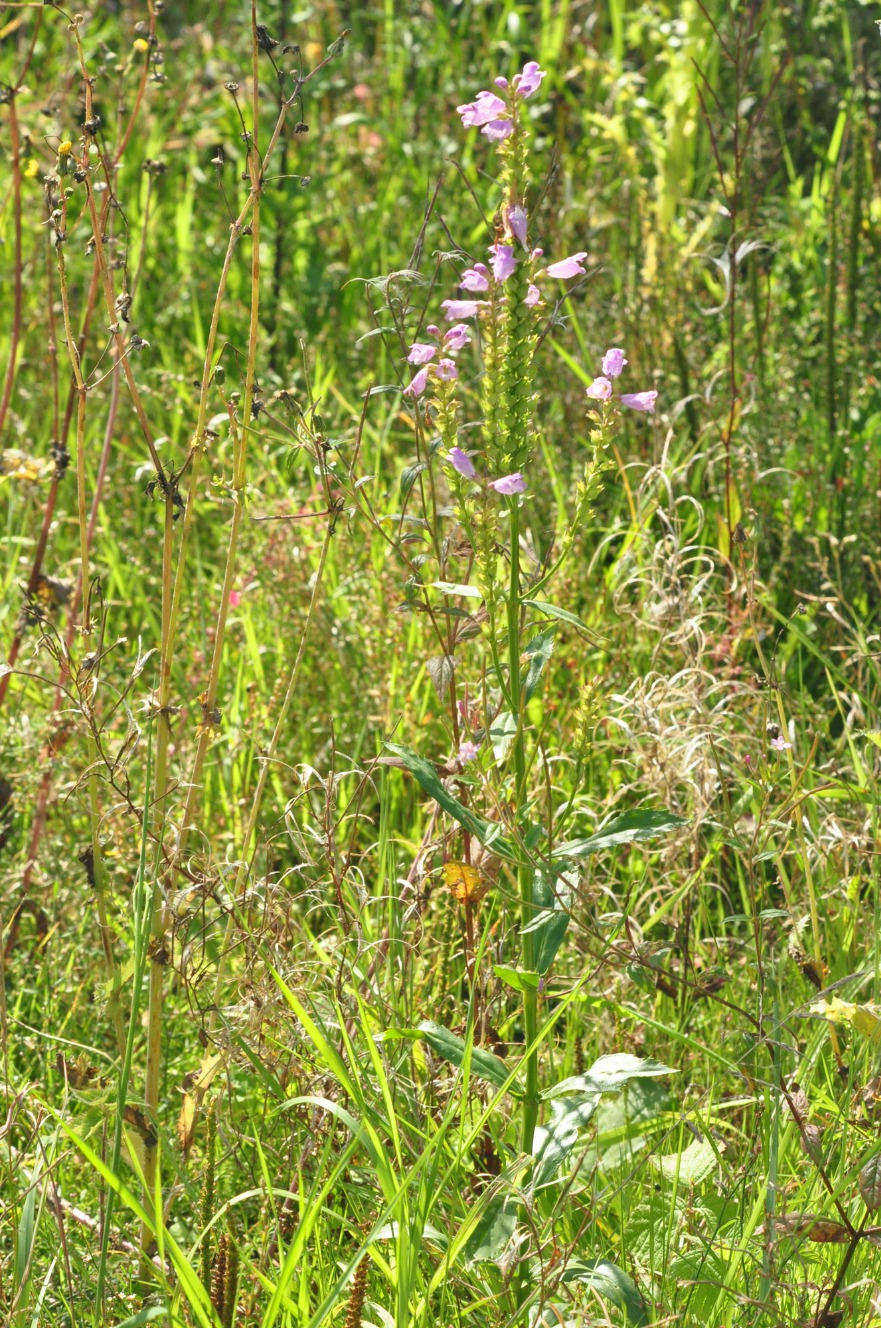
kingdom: Plantae
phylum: Tracheophyta
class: Magnoliopsida
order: Lamiales
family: Lamiaceae
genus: Physostegia
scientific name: Physostegia virginiana
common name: Drejeblomst
